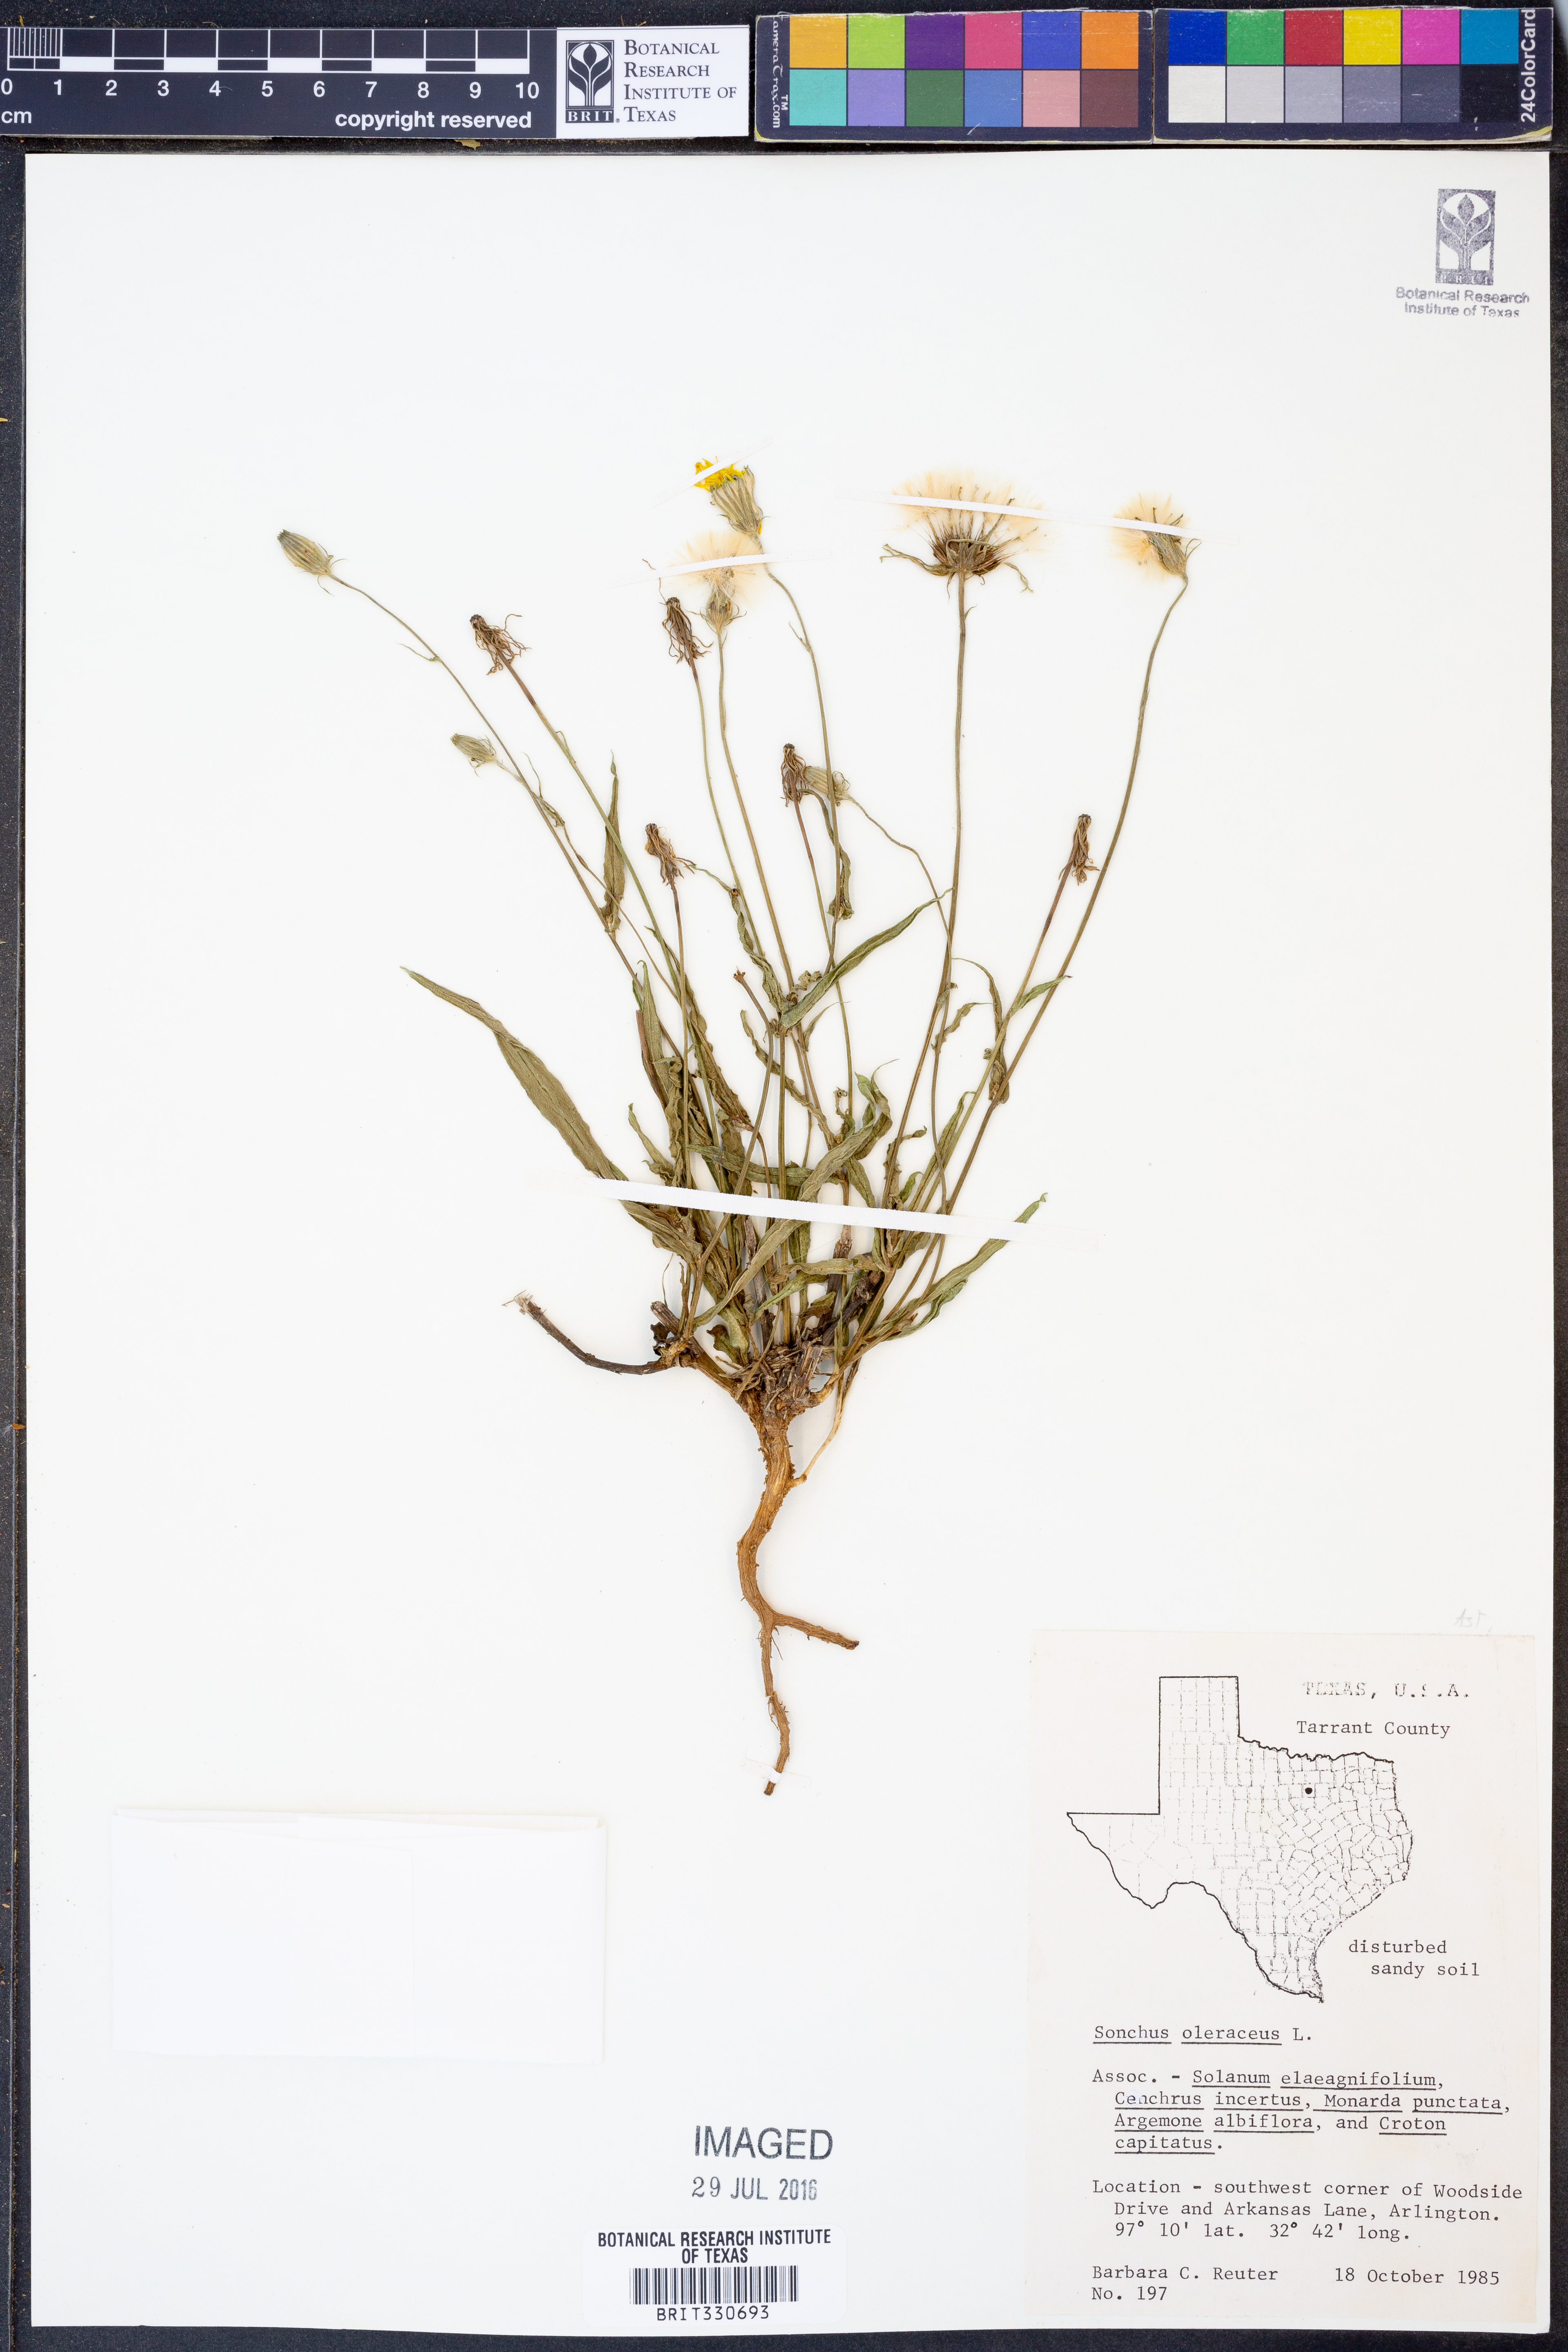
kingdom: Plantae
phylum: Tracheophyta
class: Magnoliopsida
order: Asterales
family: Asteraceae
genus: Sonchus
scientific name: Sonchus oleraceus
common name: Common sowthistle
